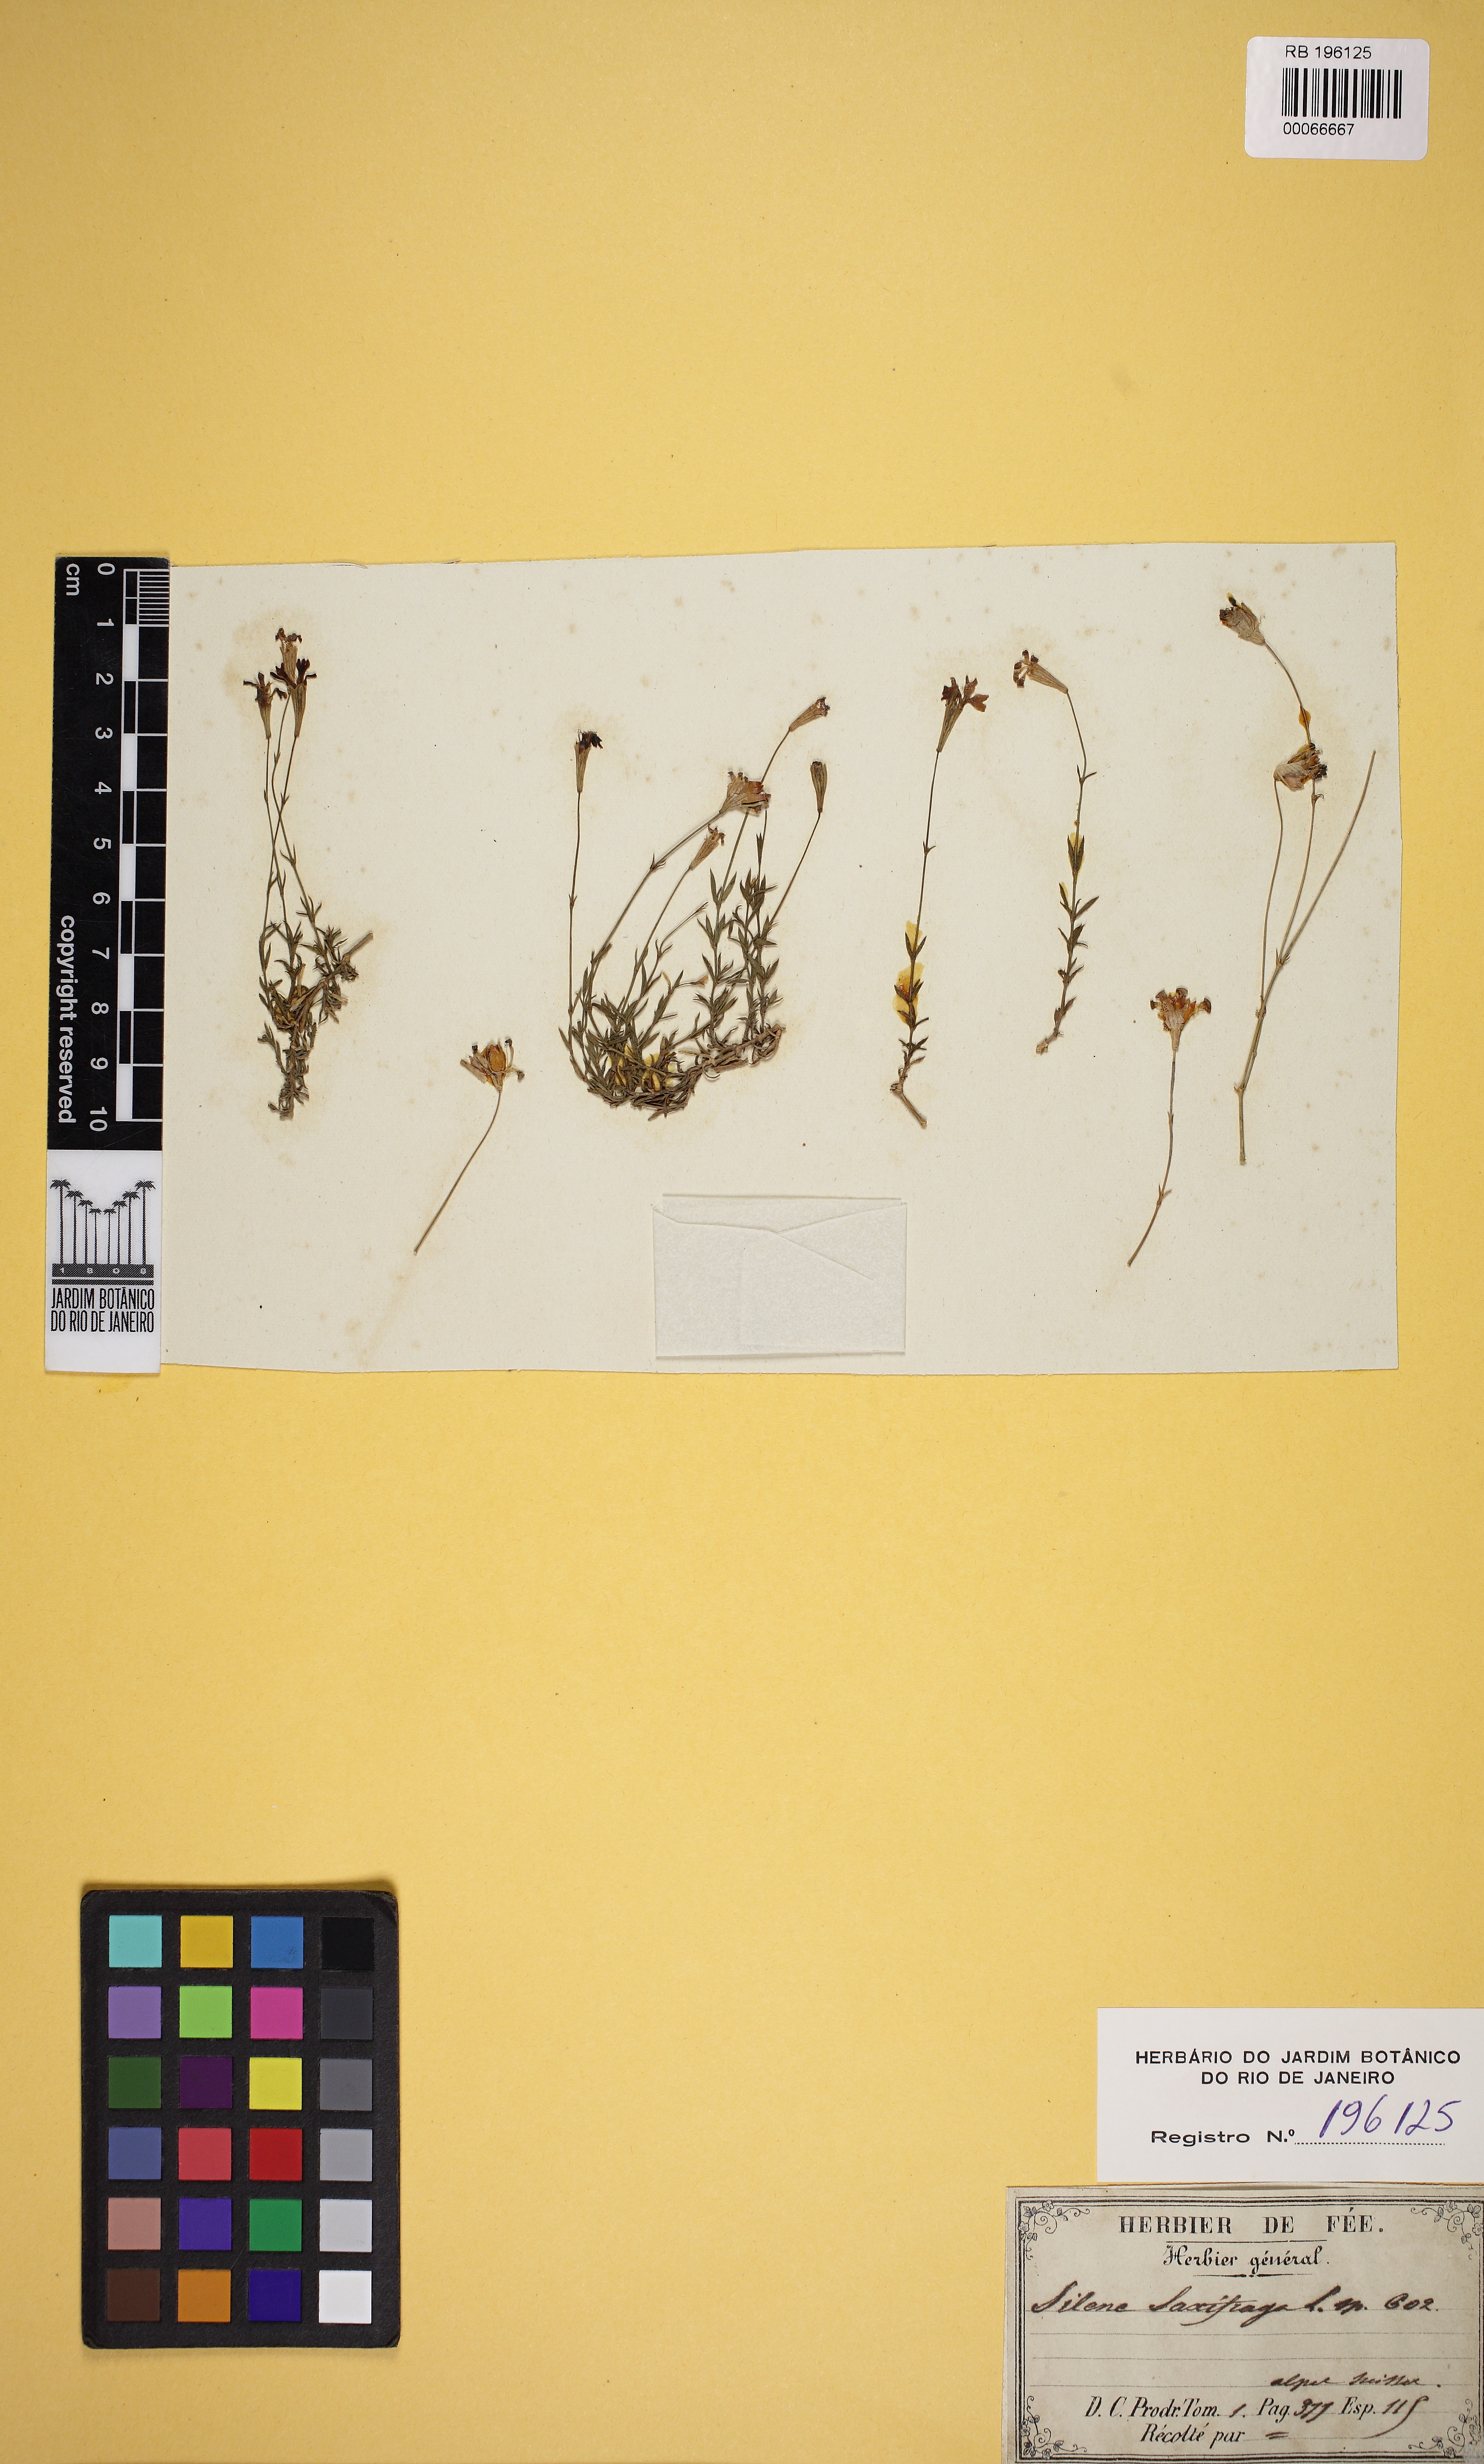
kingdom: Plantae
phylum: Tracheophyta
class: Magnoliopsida
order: Caryophyllales
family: Caryophyllaceae
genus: Silene
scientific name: Silene saxifraga
